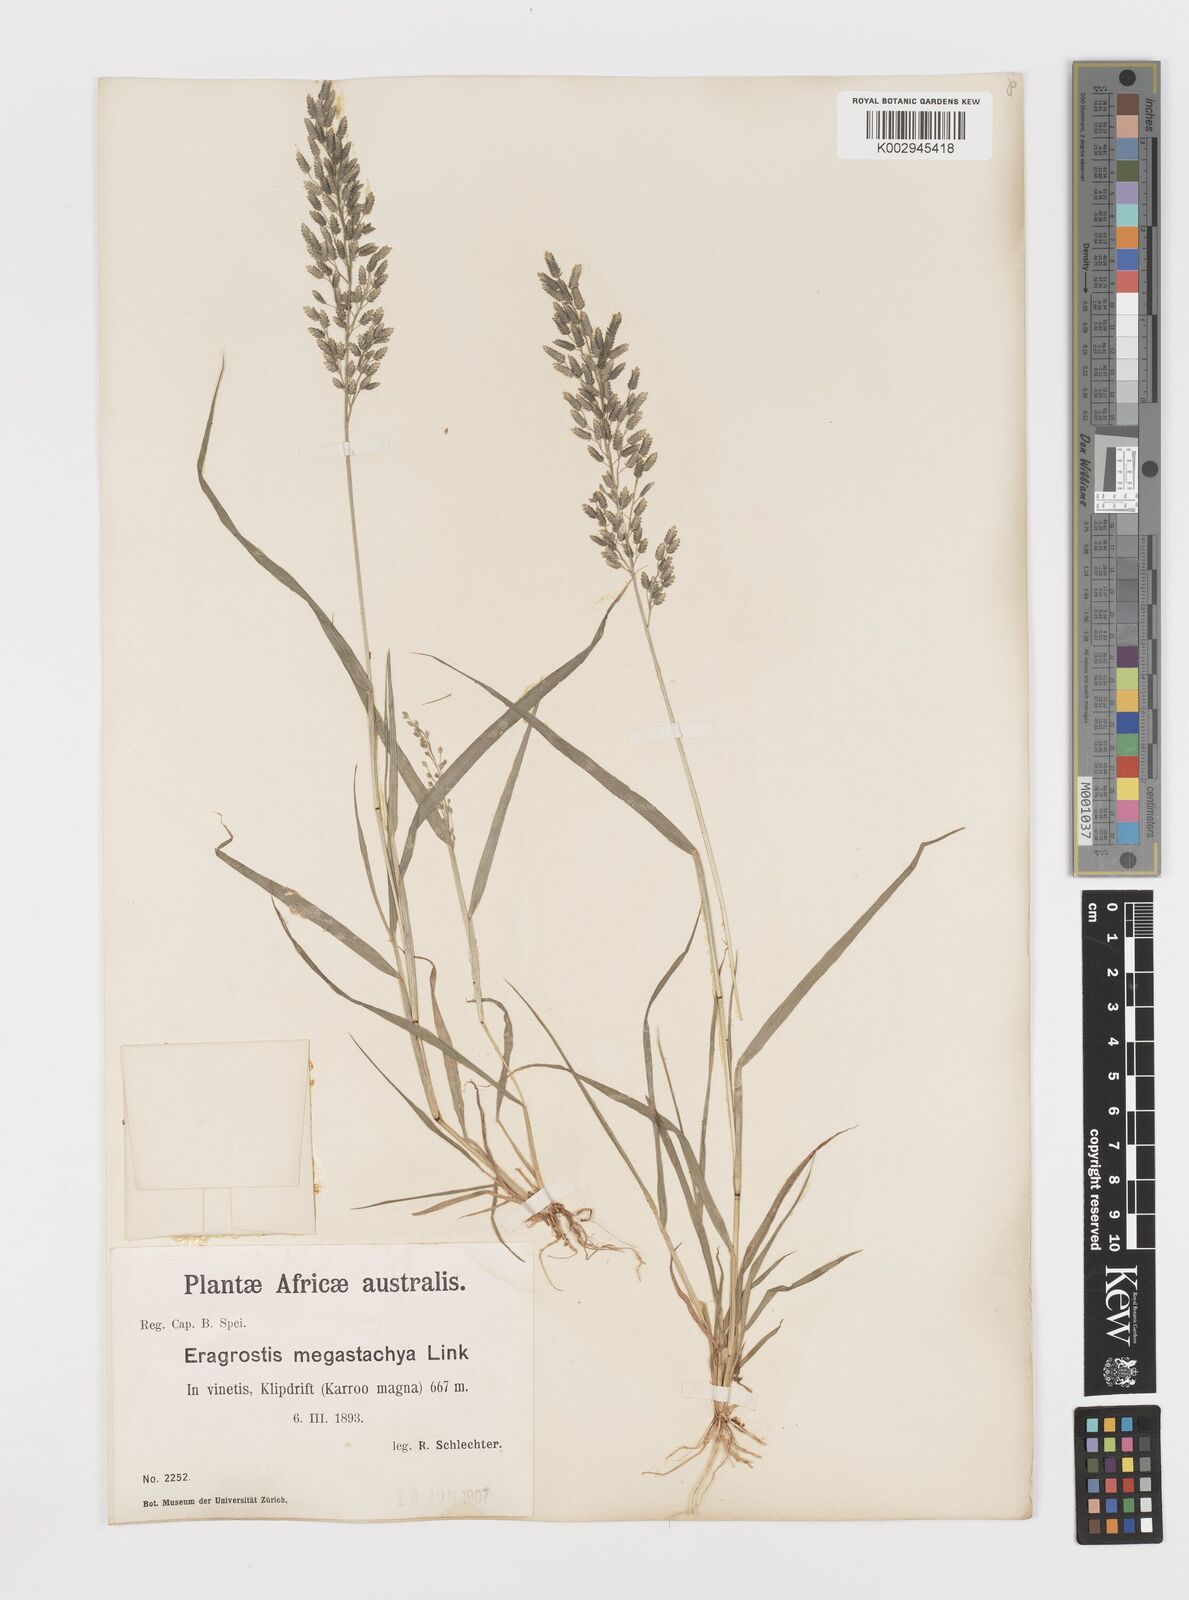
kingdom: Plantae
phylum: Tracheophyta
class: Liliopsida
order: Poales
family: Poaceae
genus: Eragrostis
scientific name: Eragrostis cilianensis
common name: Stinkgrass
